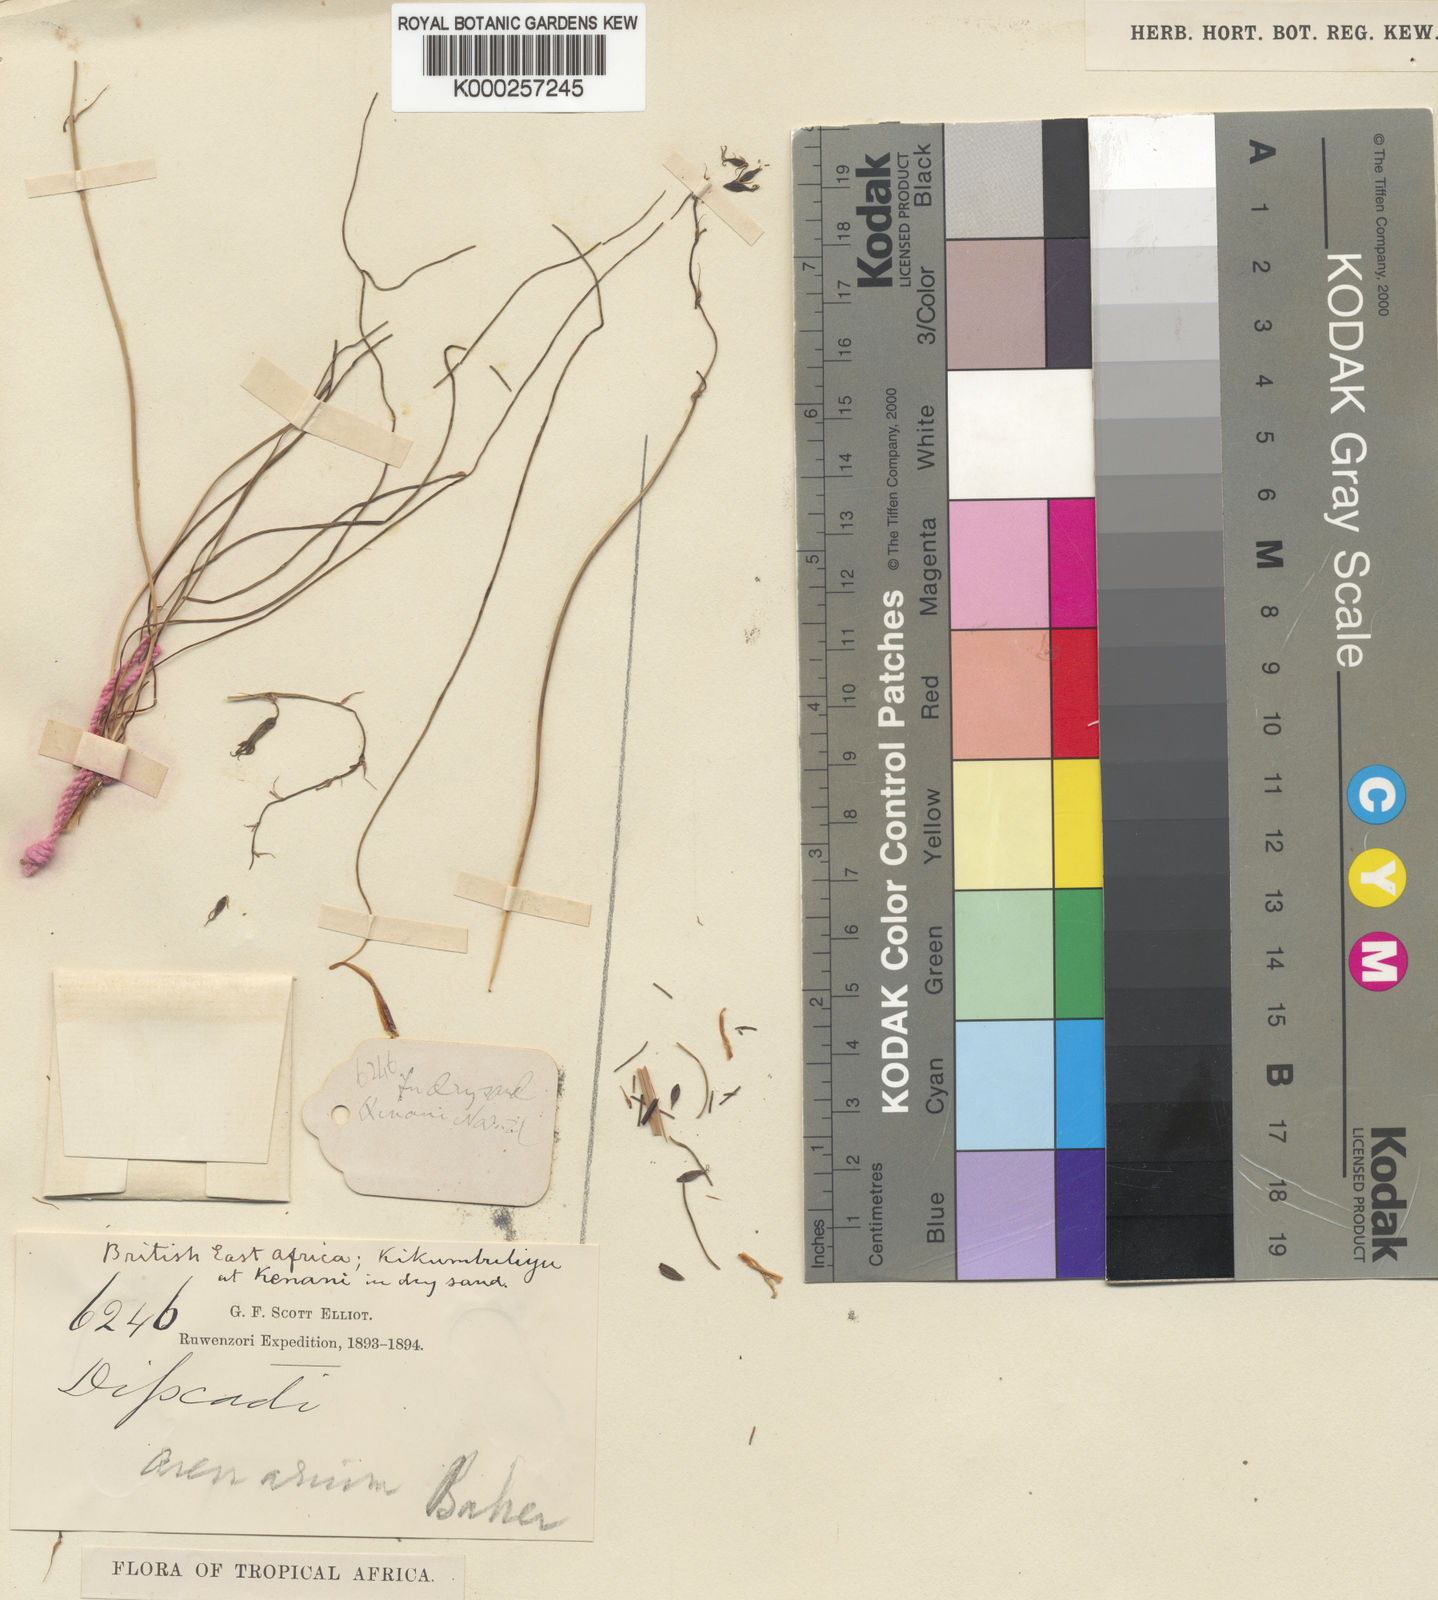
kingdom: Plantae
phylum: Tracheophyta
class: Liliopsida
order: Asparagales
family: Asparagaceae
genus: Dipcadi
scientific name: Dipcadi viride
